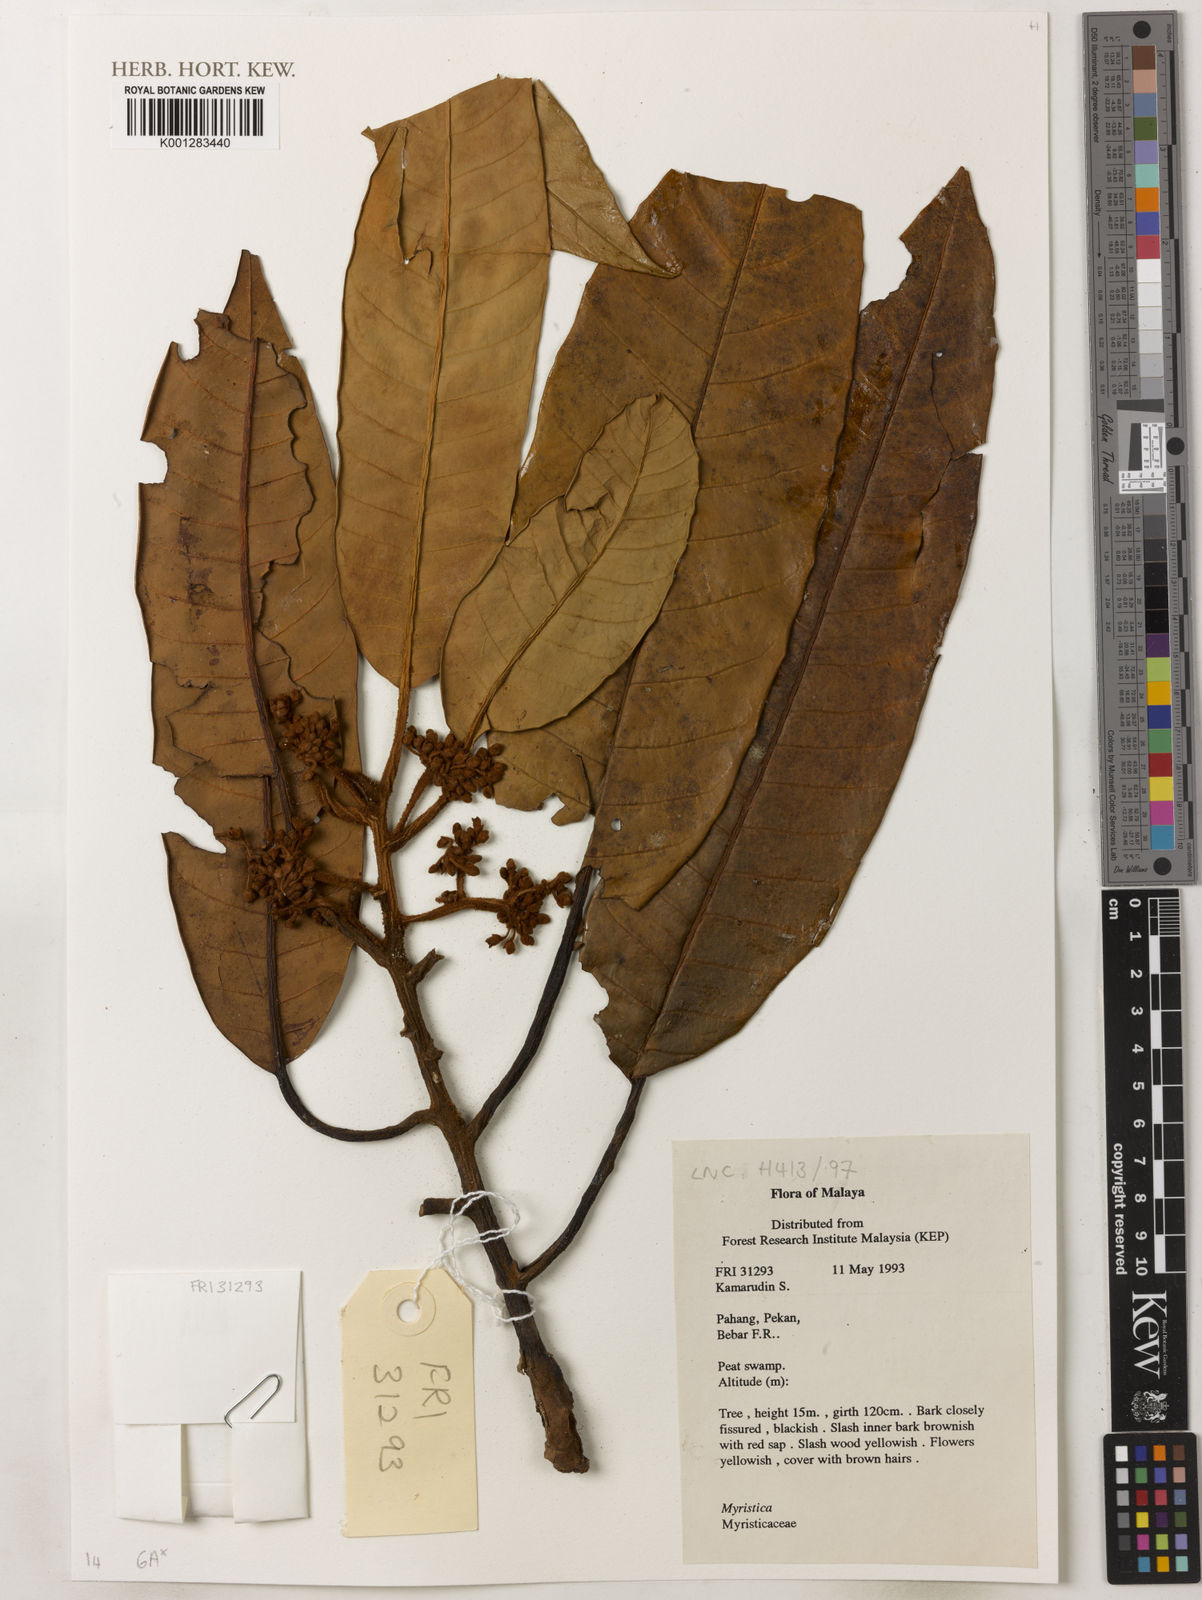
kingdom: Plantae
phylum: Tracheophyta
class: Magnoliopsida
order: Magnoliales
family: Myristicaceae
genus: Myristica
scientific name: Myristica
